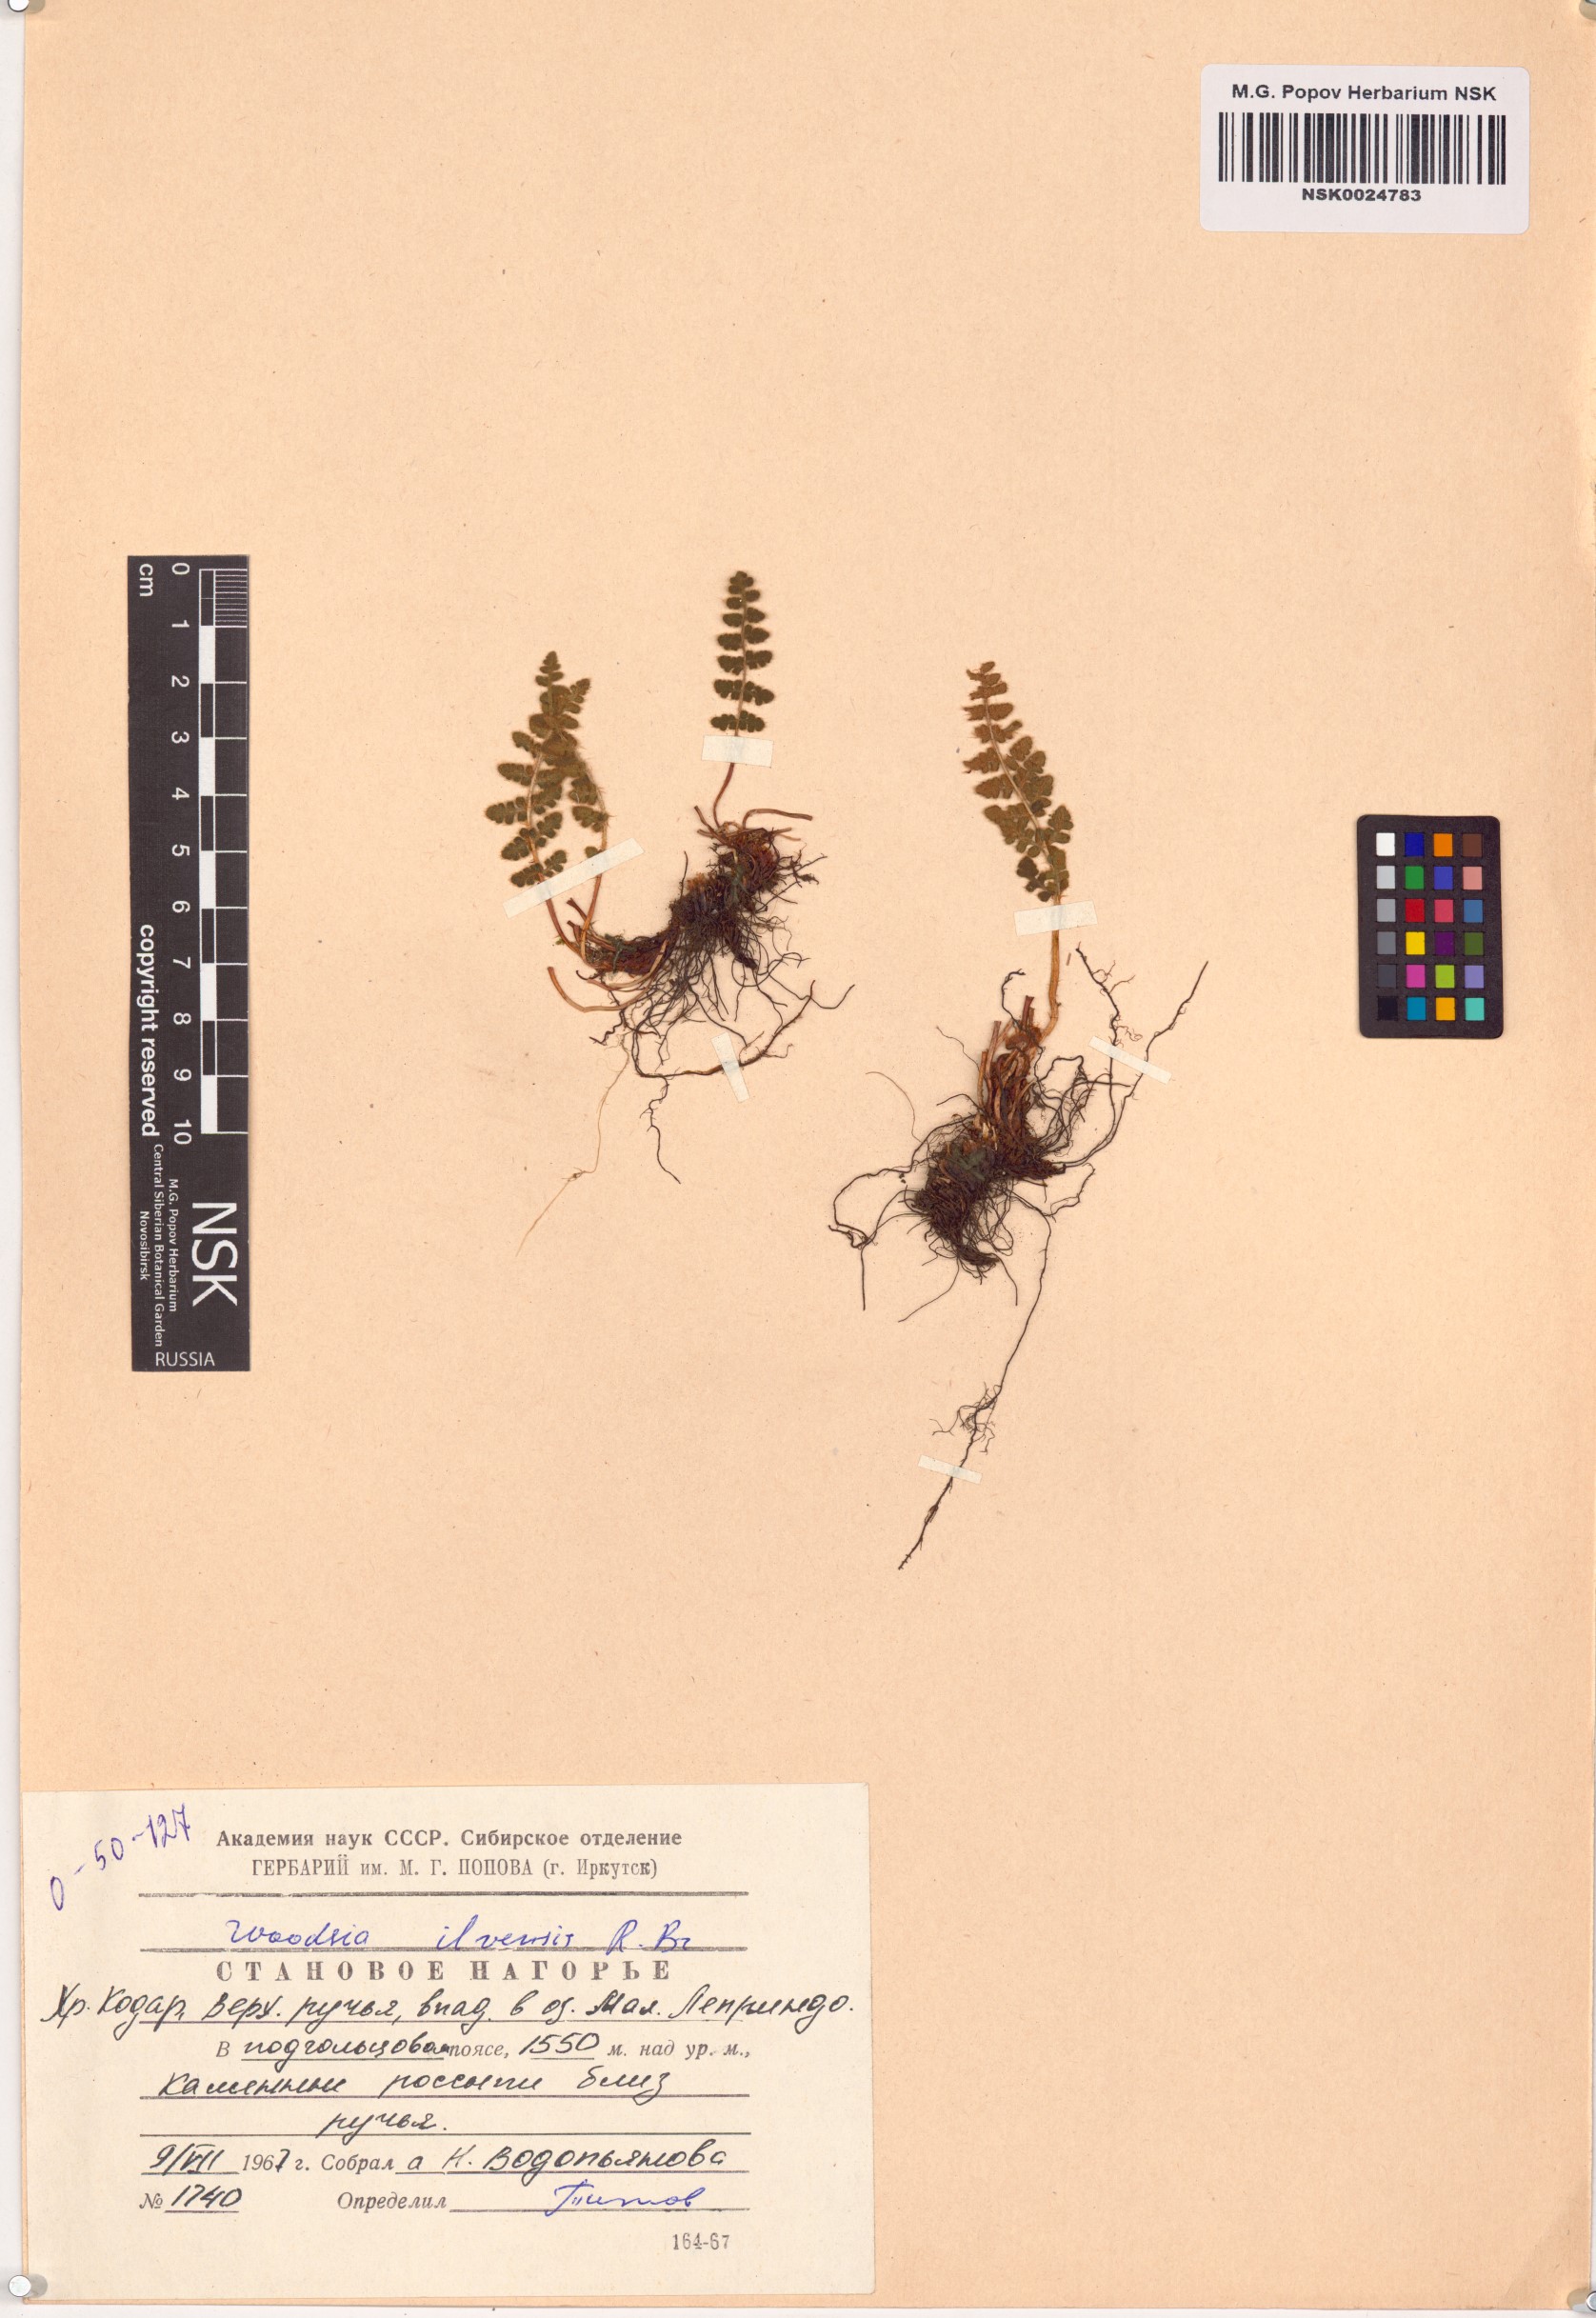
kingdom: Plantae
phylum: Tracheophyta
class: Polypodiopsida
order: Polypodiales
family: Woodsiaceae
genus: Woodsia
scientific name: Woodsia ilvensis
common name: Fragrant woodsia
